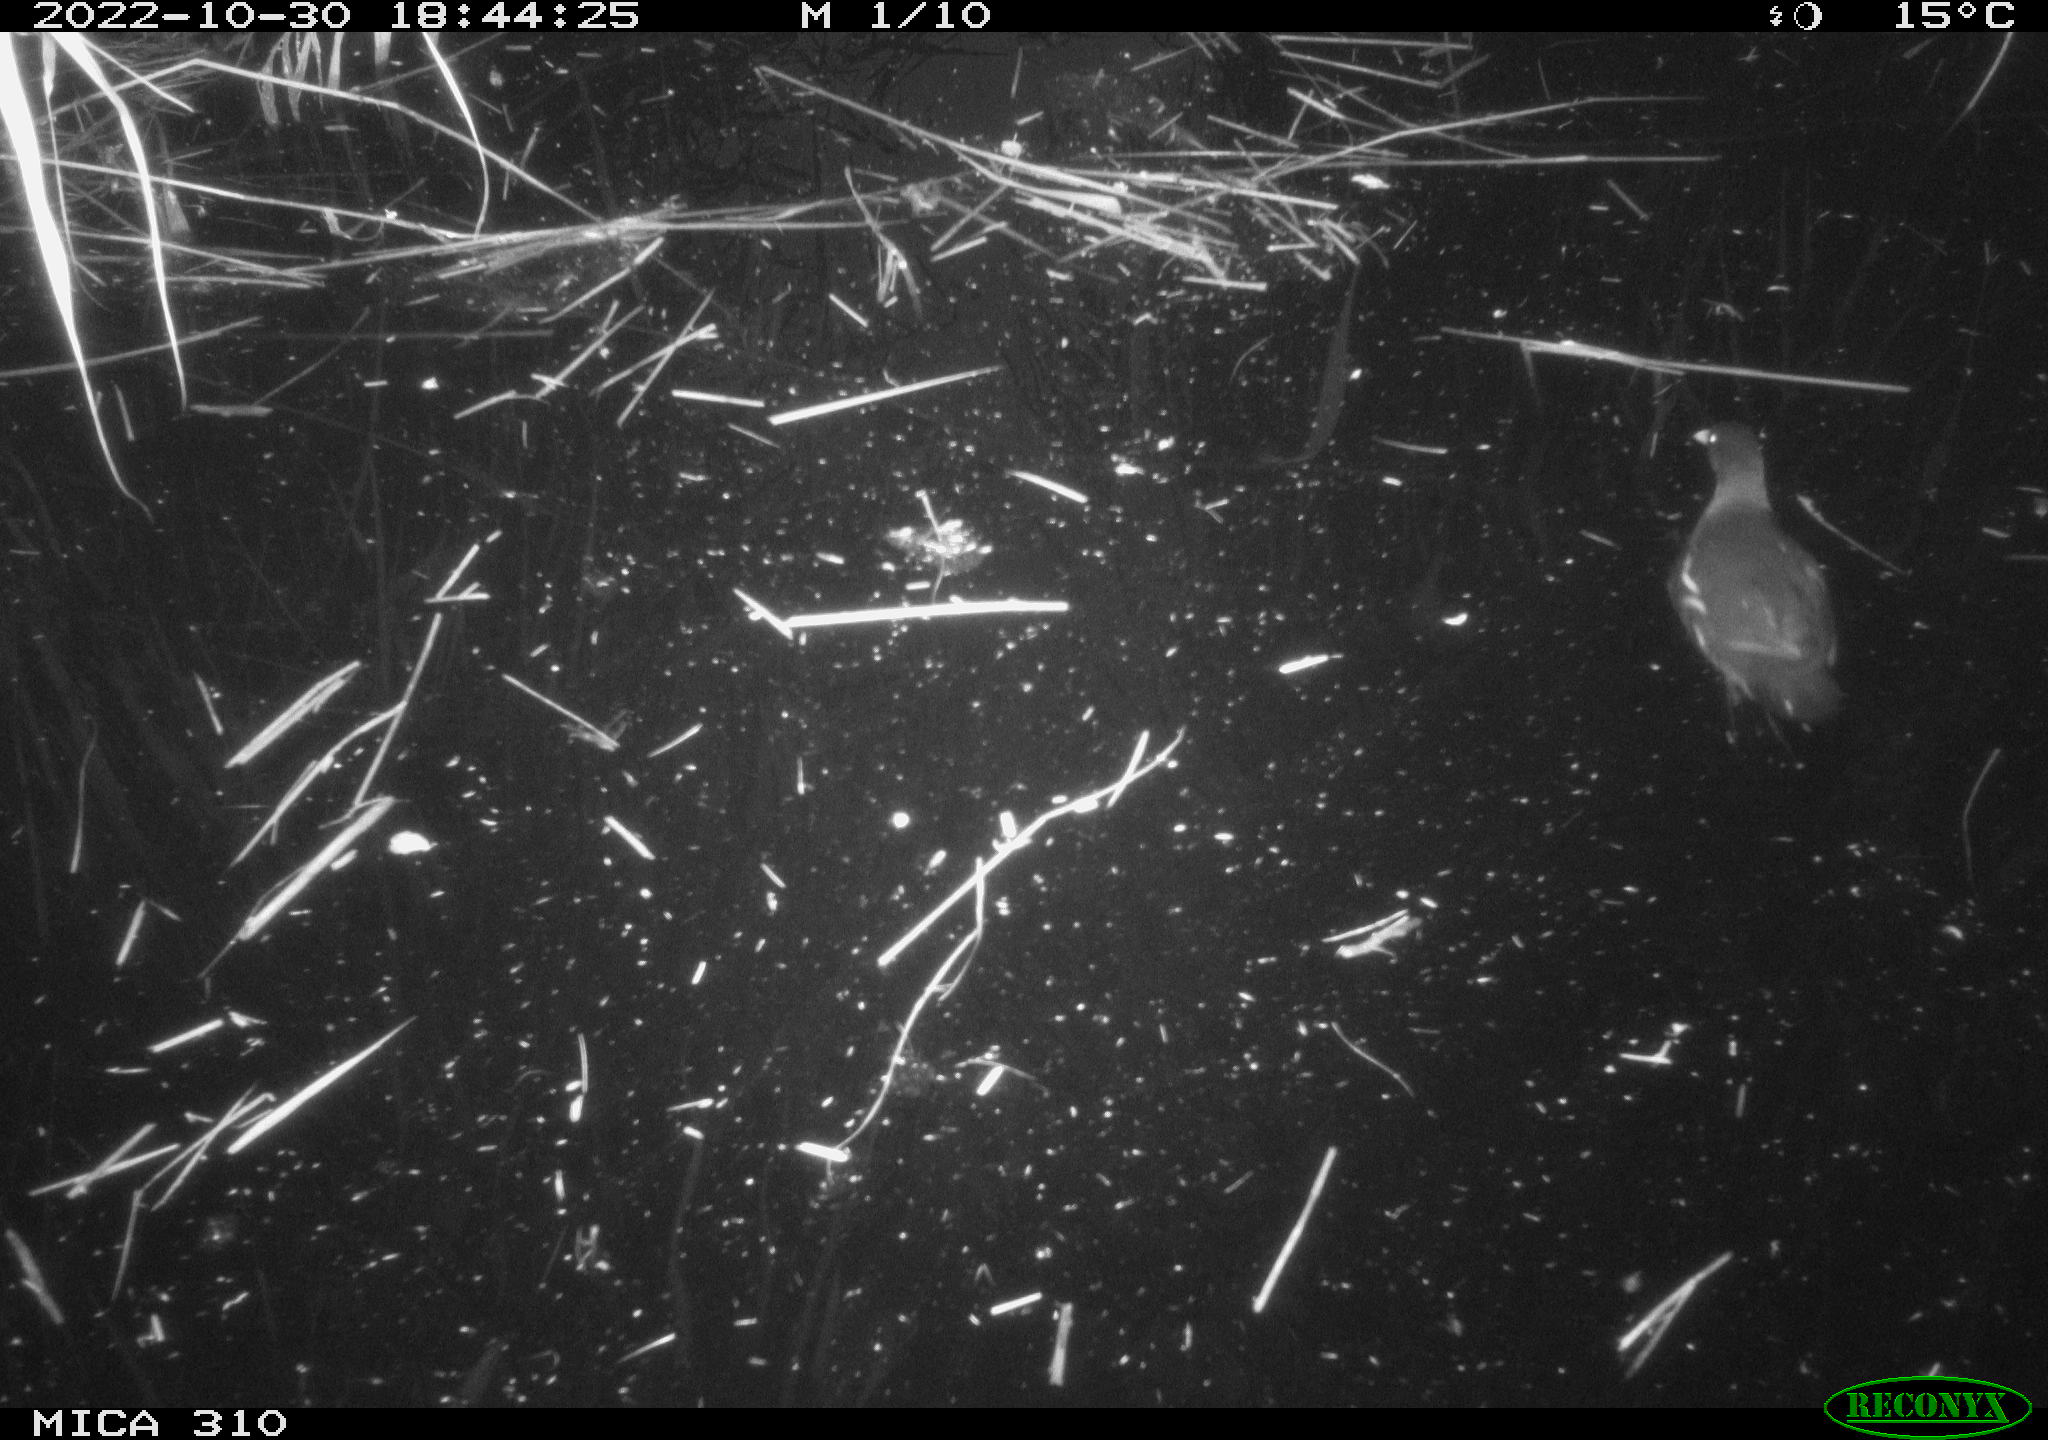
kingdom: Animalia
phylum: Chordata
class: Aves
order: Gruiformes
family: Rallidae
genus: Gallinula
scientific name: Gallinula chloropus
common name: Common moorhen
